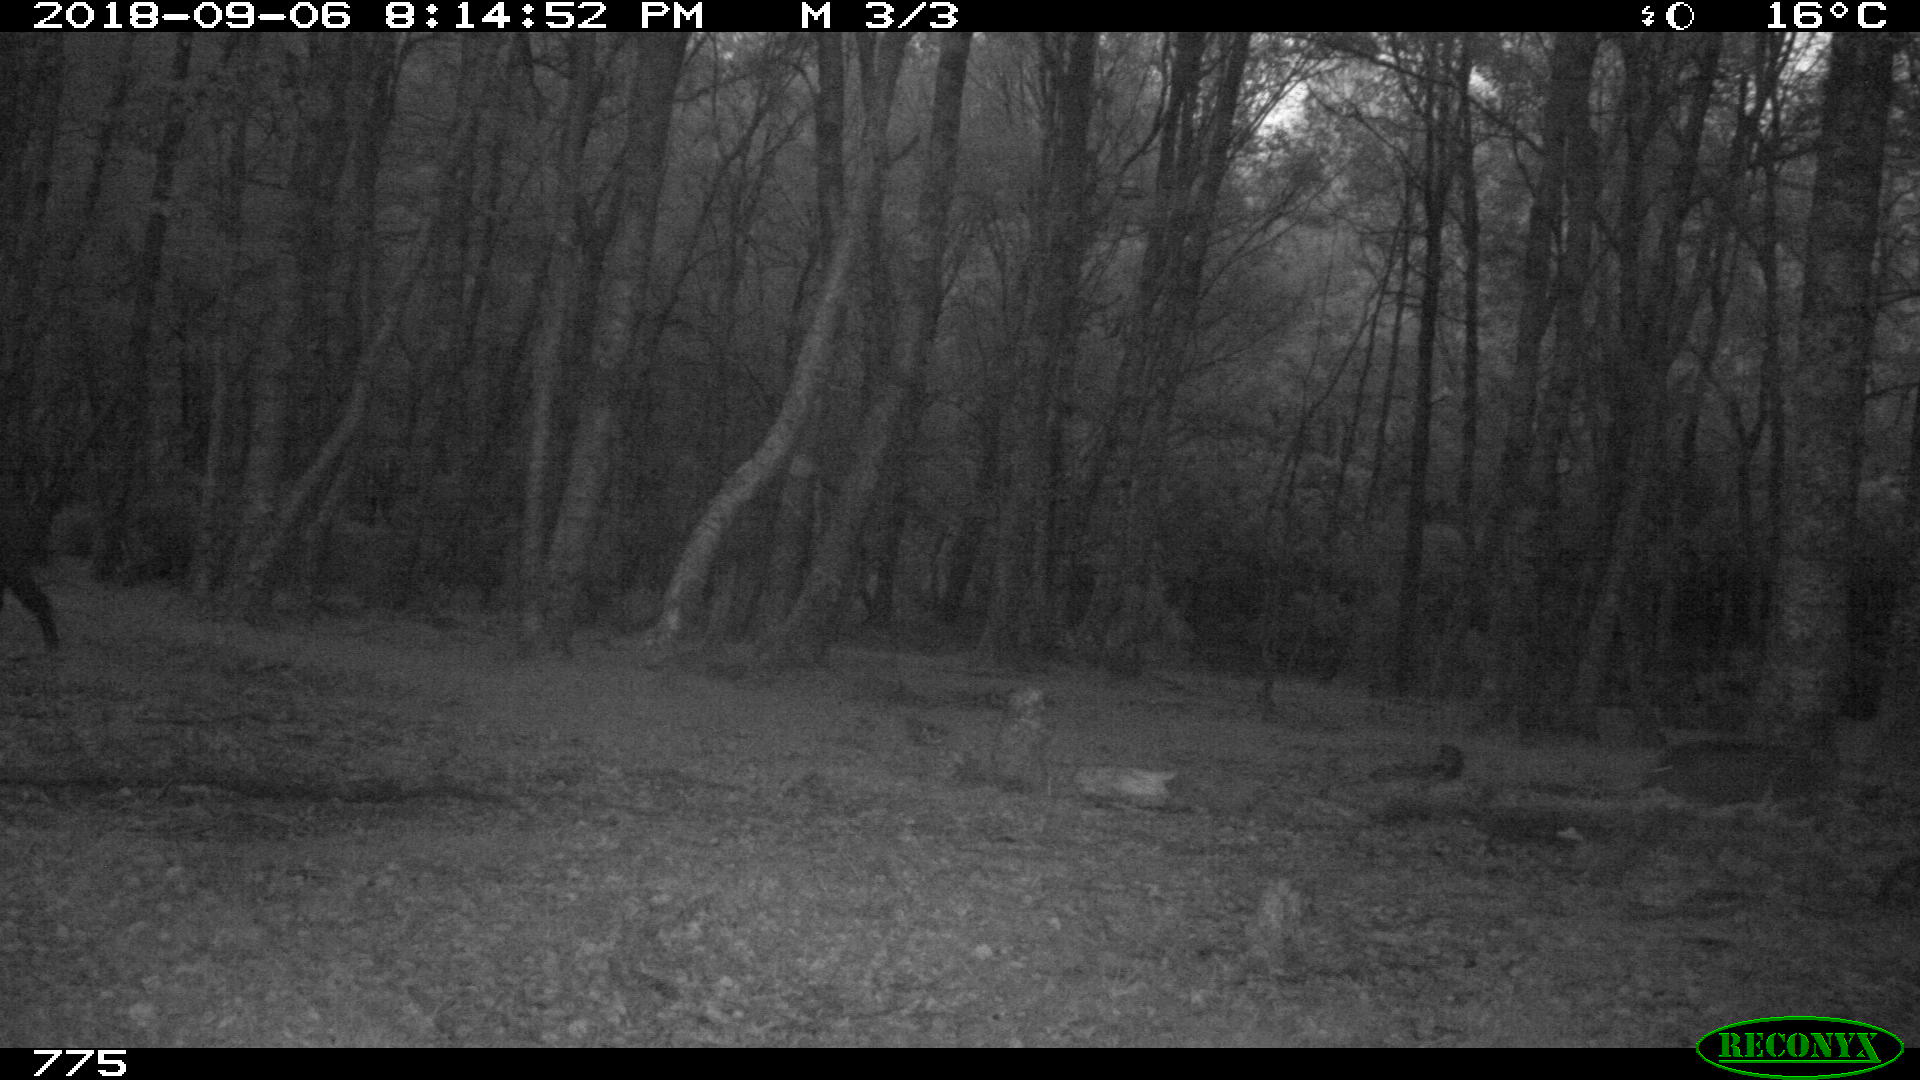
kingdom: Animalia
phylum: Chordata
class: Mammalia
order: Artiodactyla
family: Suidae
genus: Sus
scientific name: Sus scrofa
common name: Wild boar
